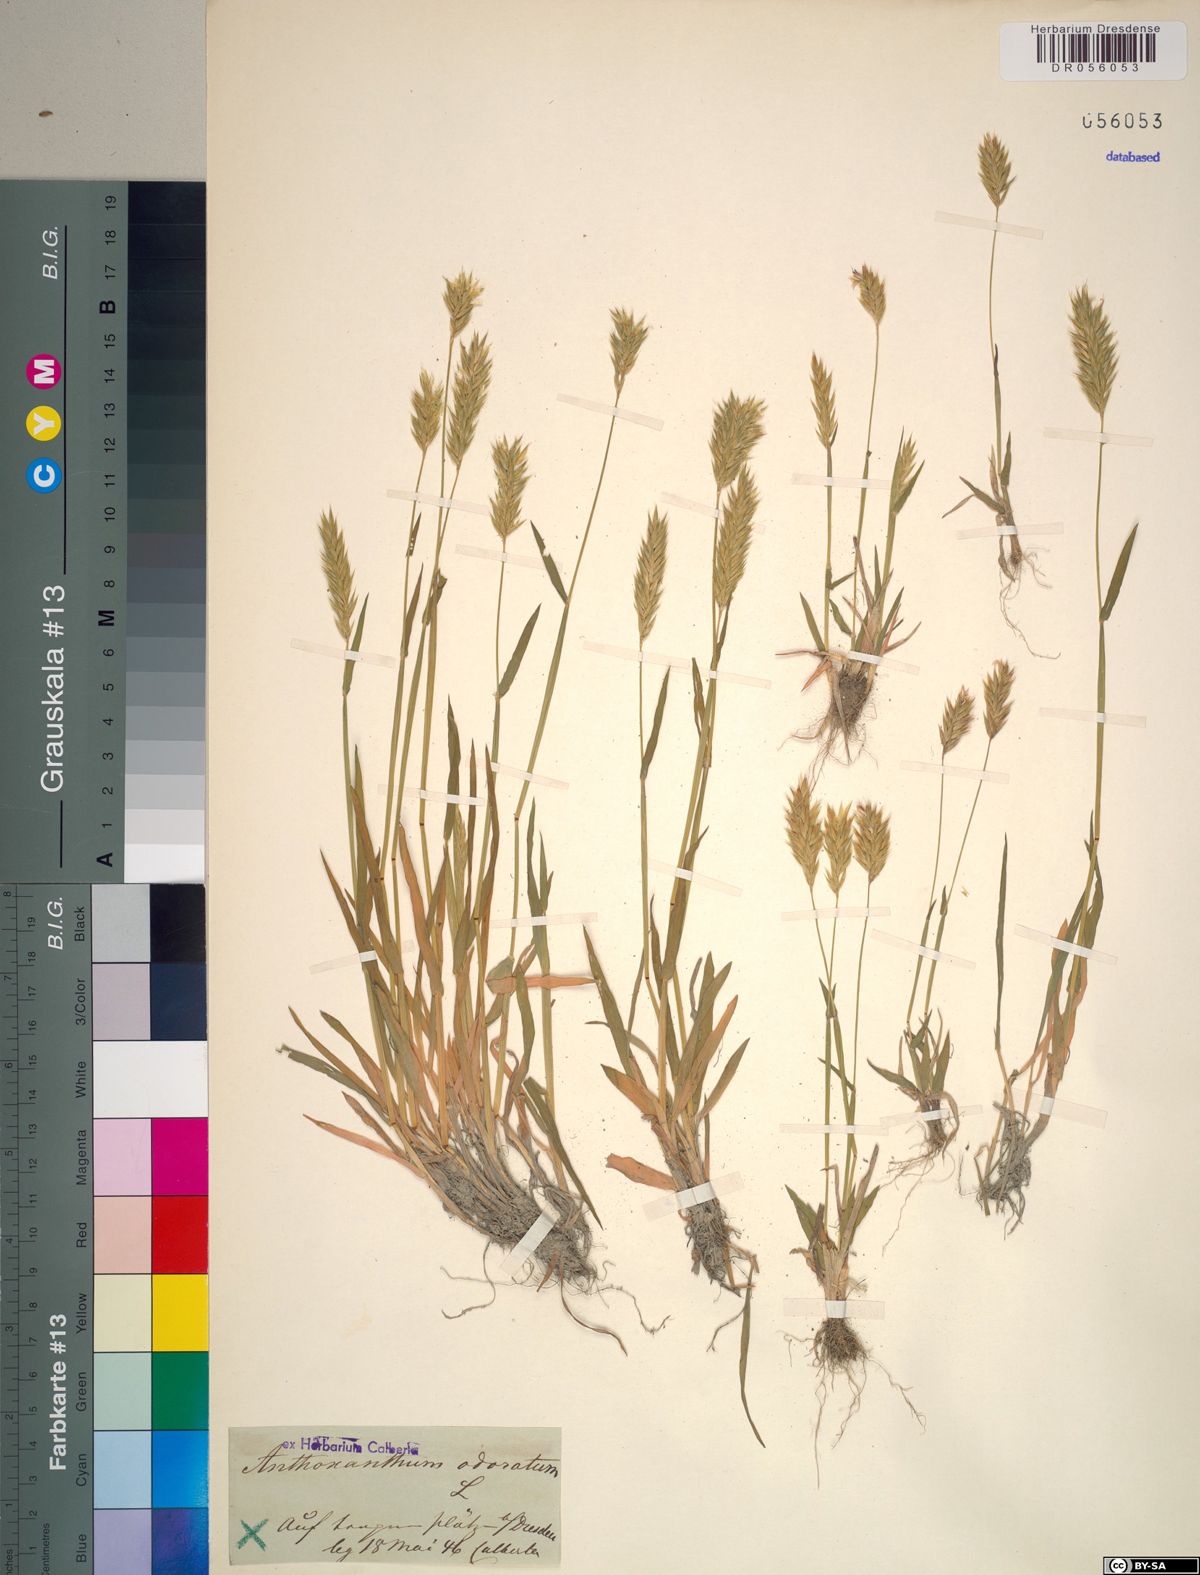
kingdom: Plantae
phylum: Tracheophyta
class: Liliopsida
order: Poales
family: Poaceae
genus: Anthoxanthum
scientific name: Anthoxanthum odoratum
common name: Sweet vernalgrass
